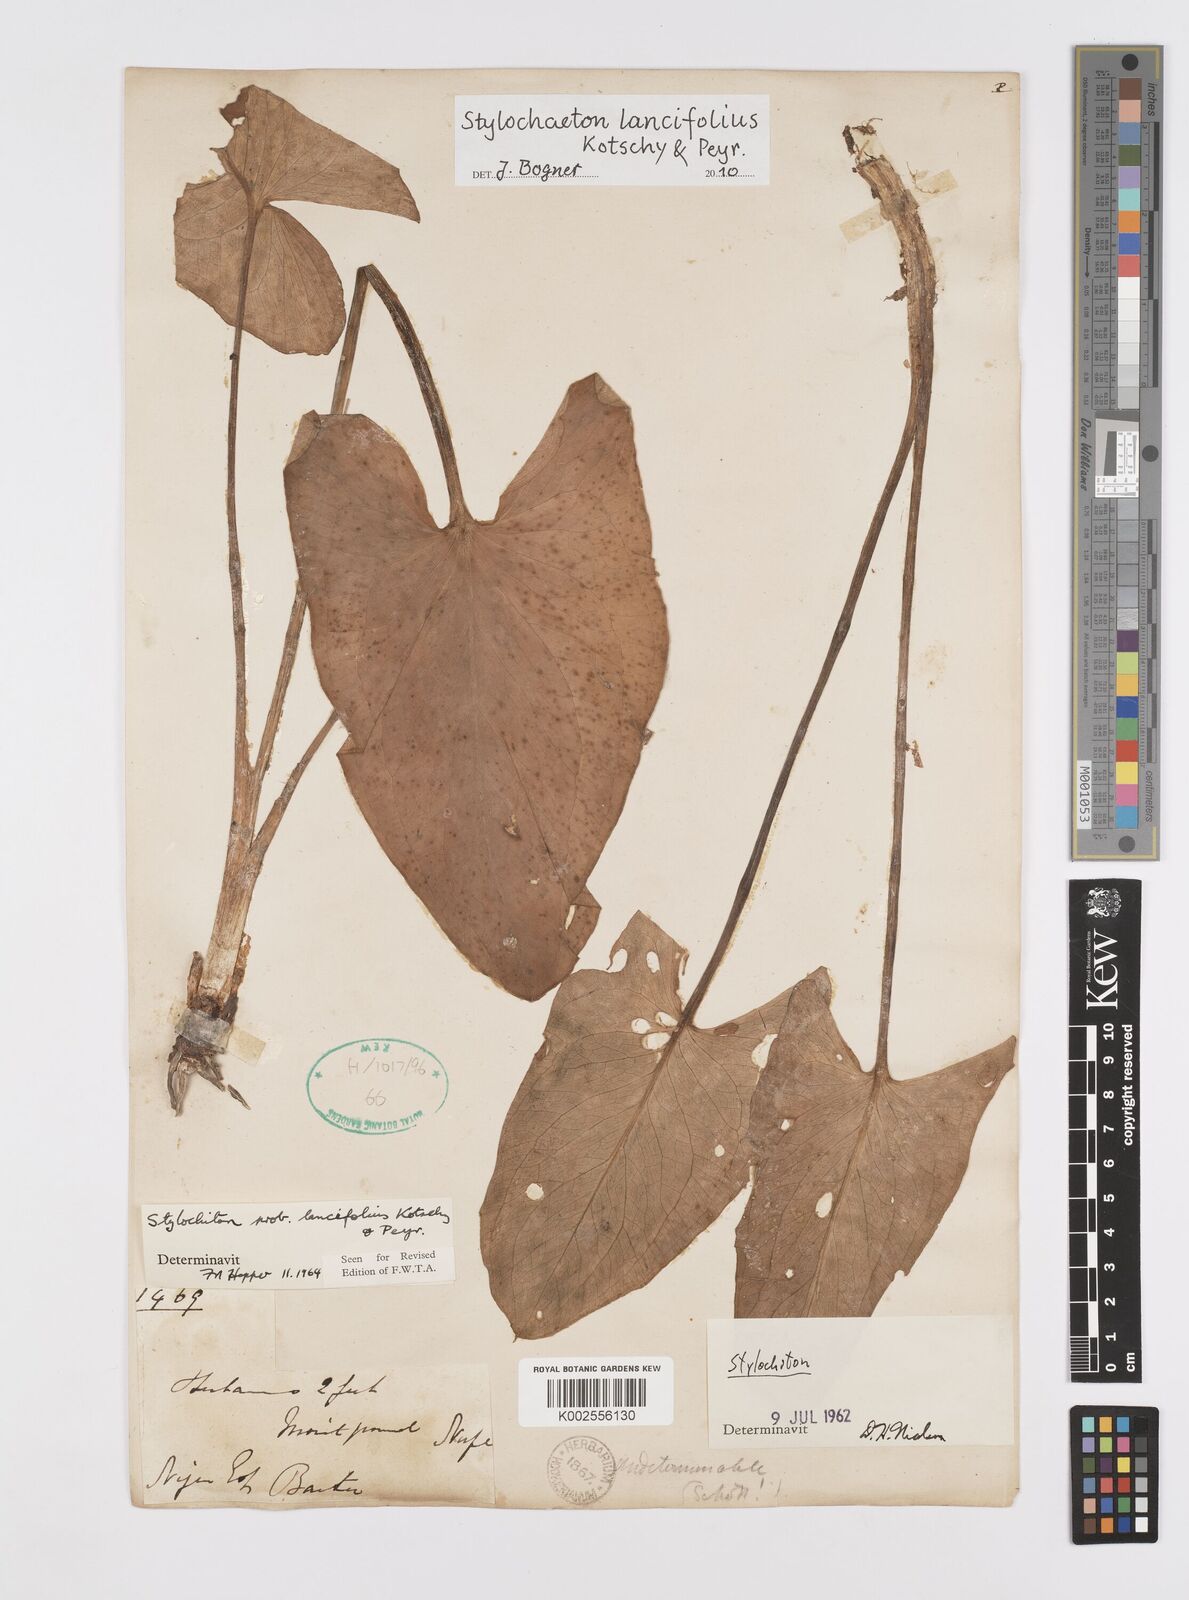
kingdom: Plantae
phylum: Tracheophyta
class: Liliopsida
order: Alismatales
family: Araceae
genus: Stylochaeton
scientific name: Stylochaeton lancifolium
